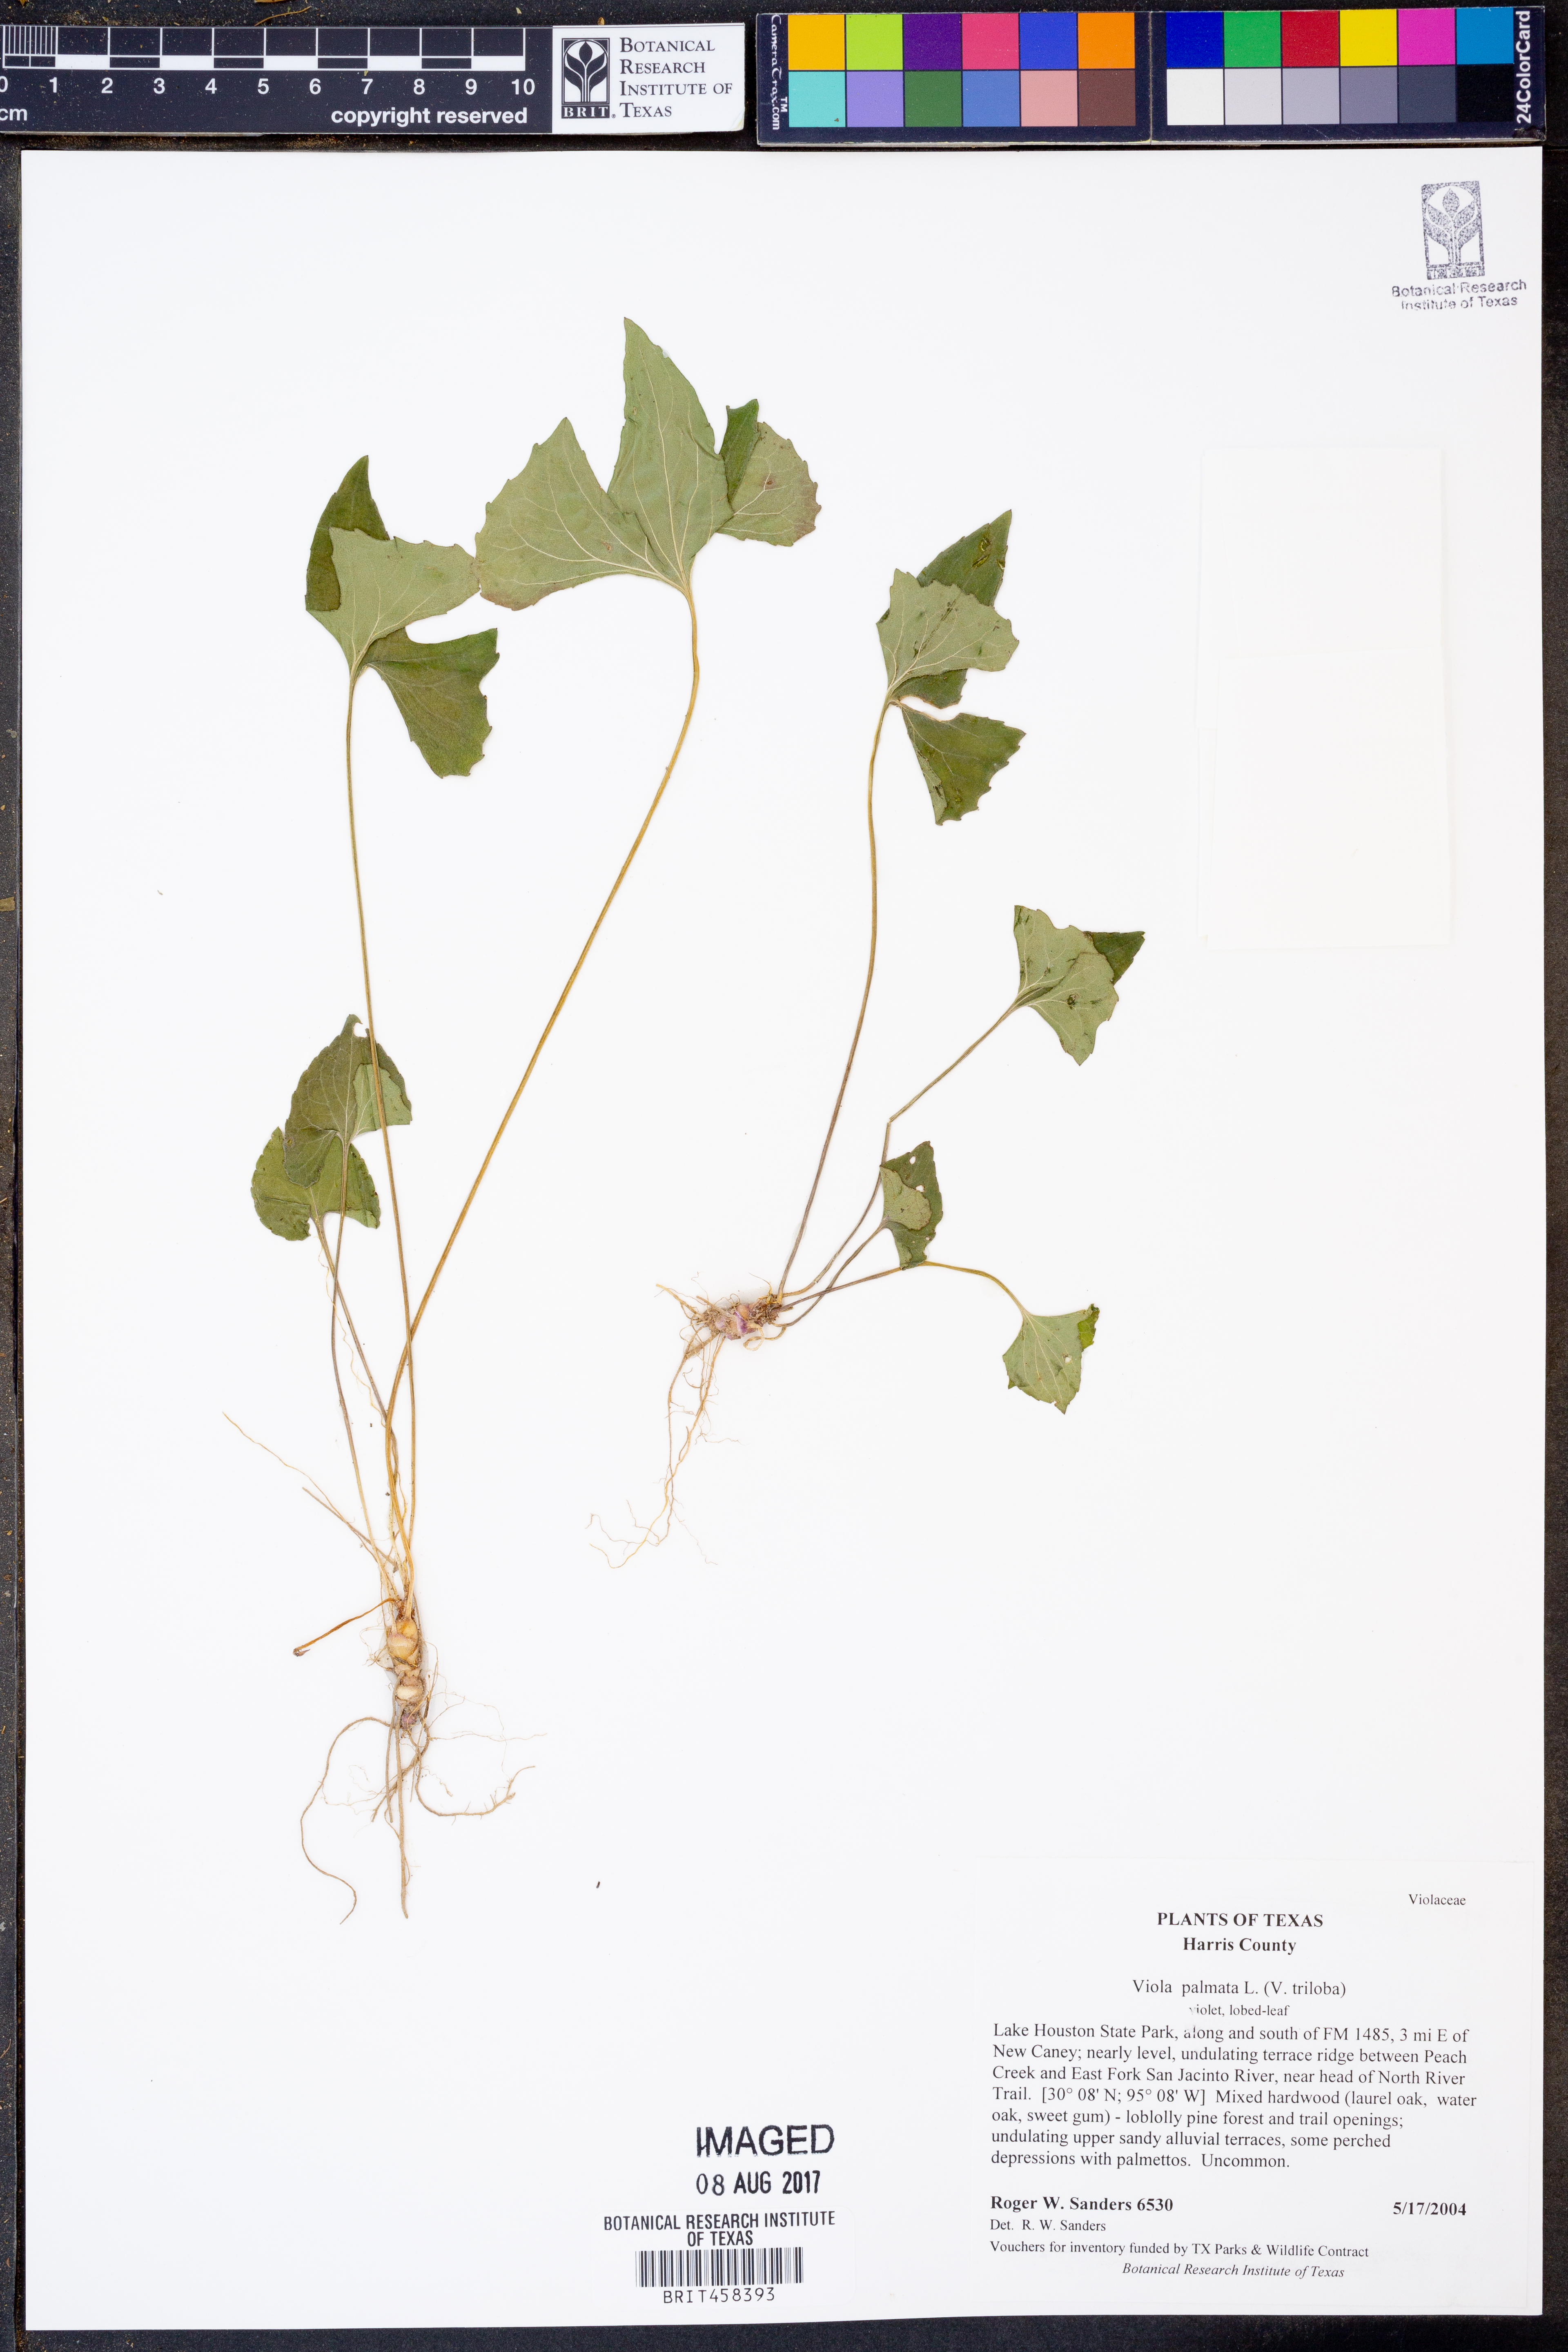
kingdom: Plantae
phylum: Tracheophyta
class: Magnoliopsida
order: Malpighiales
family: Violaceae
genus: Viola
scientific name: Viola palmata
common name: Early blue violet
